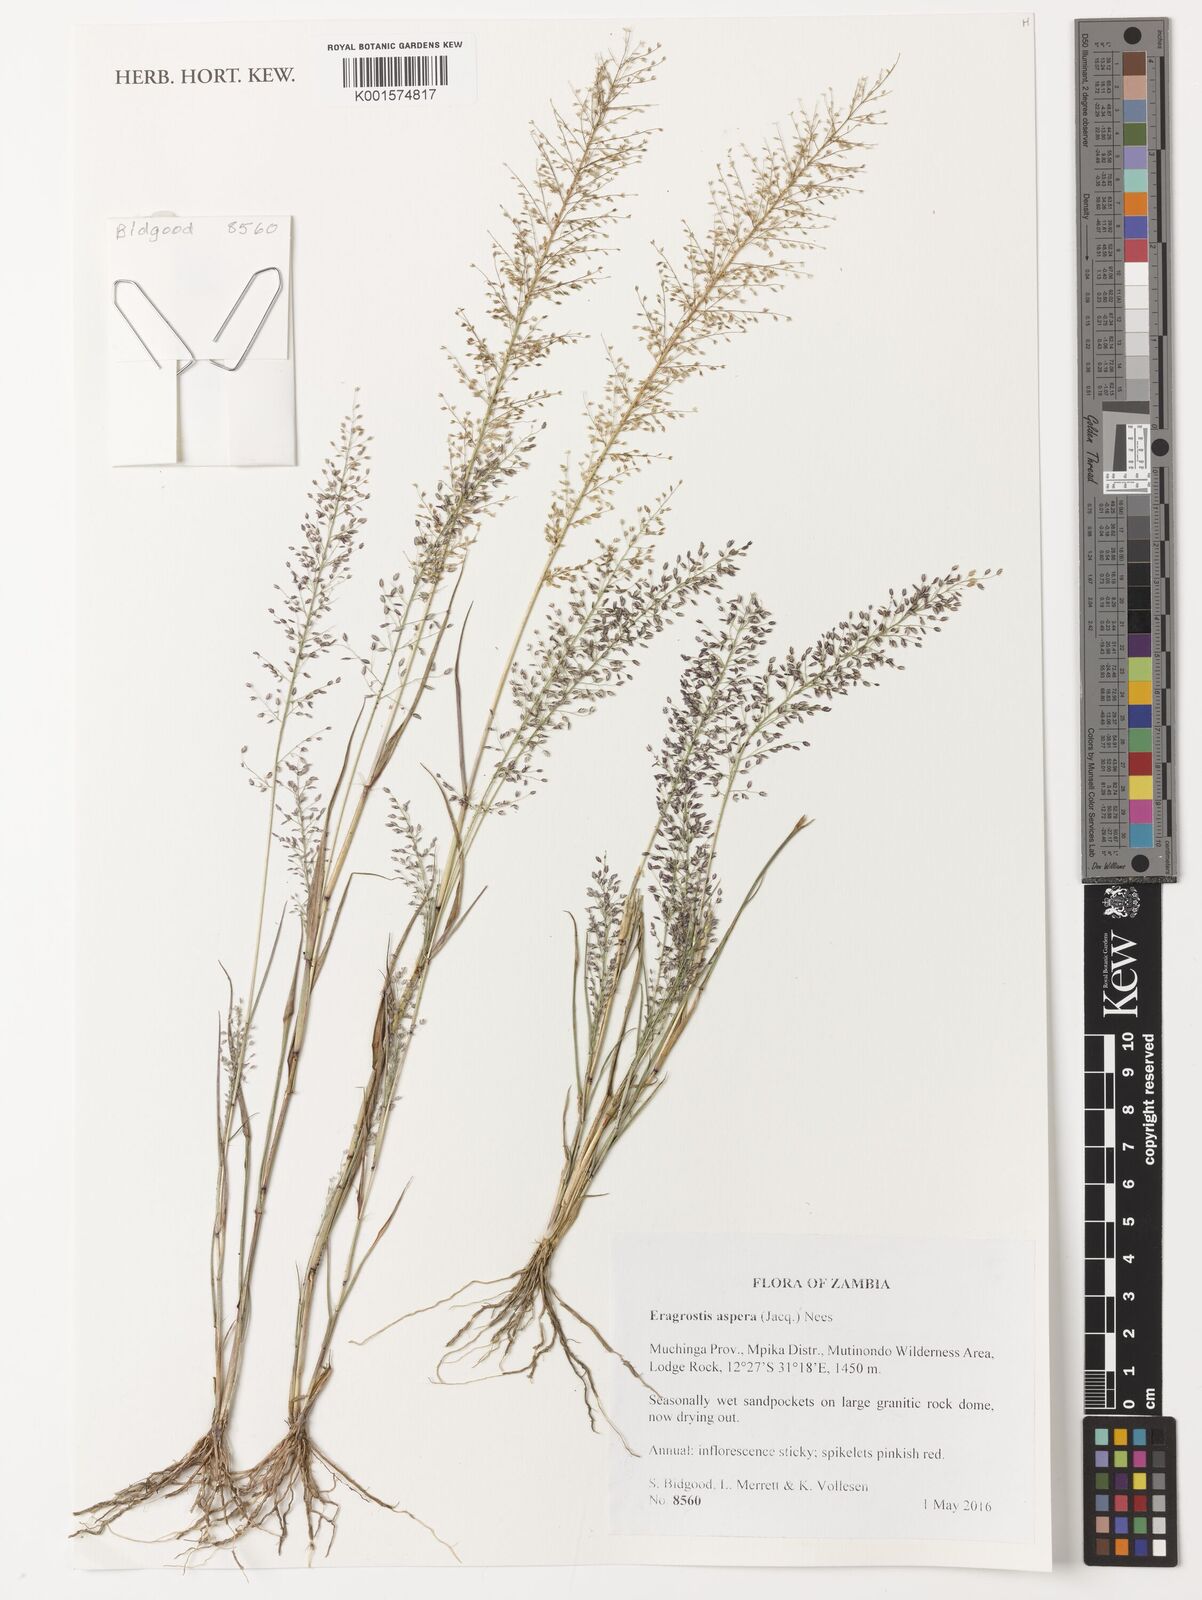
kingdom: Plantae
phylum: Tracheophyta
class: Liliopsida
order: Poales
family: Poaceae
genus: Eragrostis
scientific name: Eragrostis aspera
